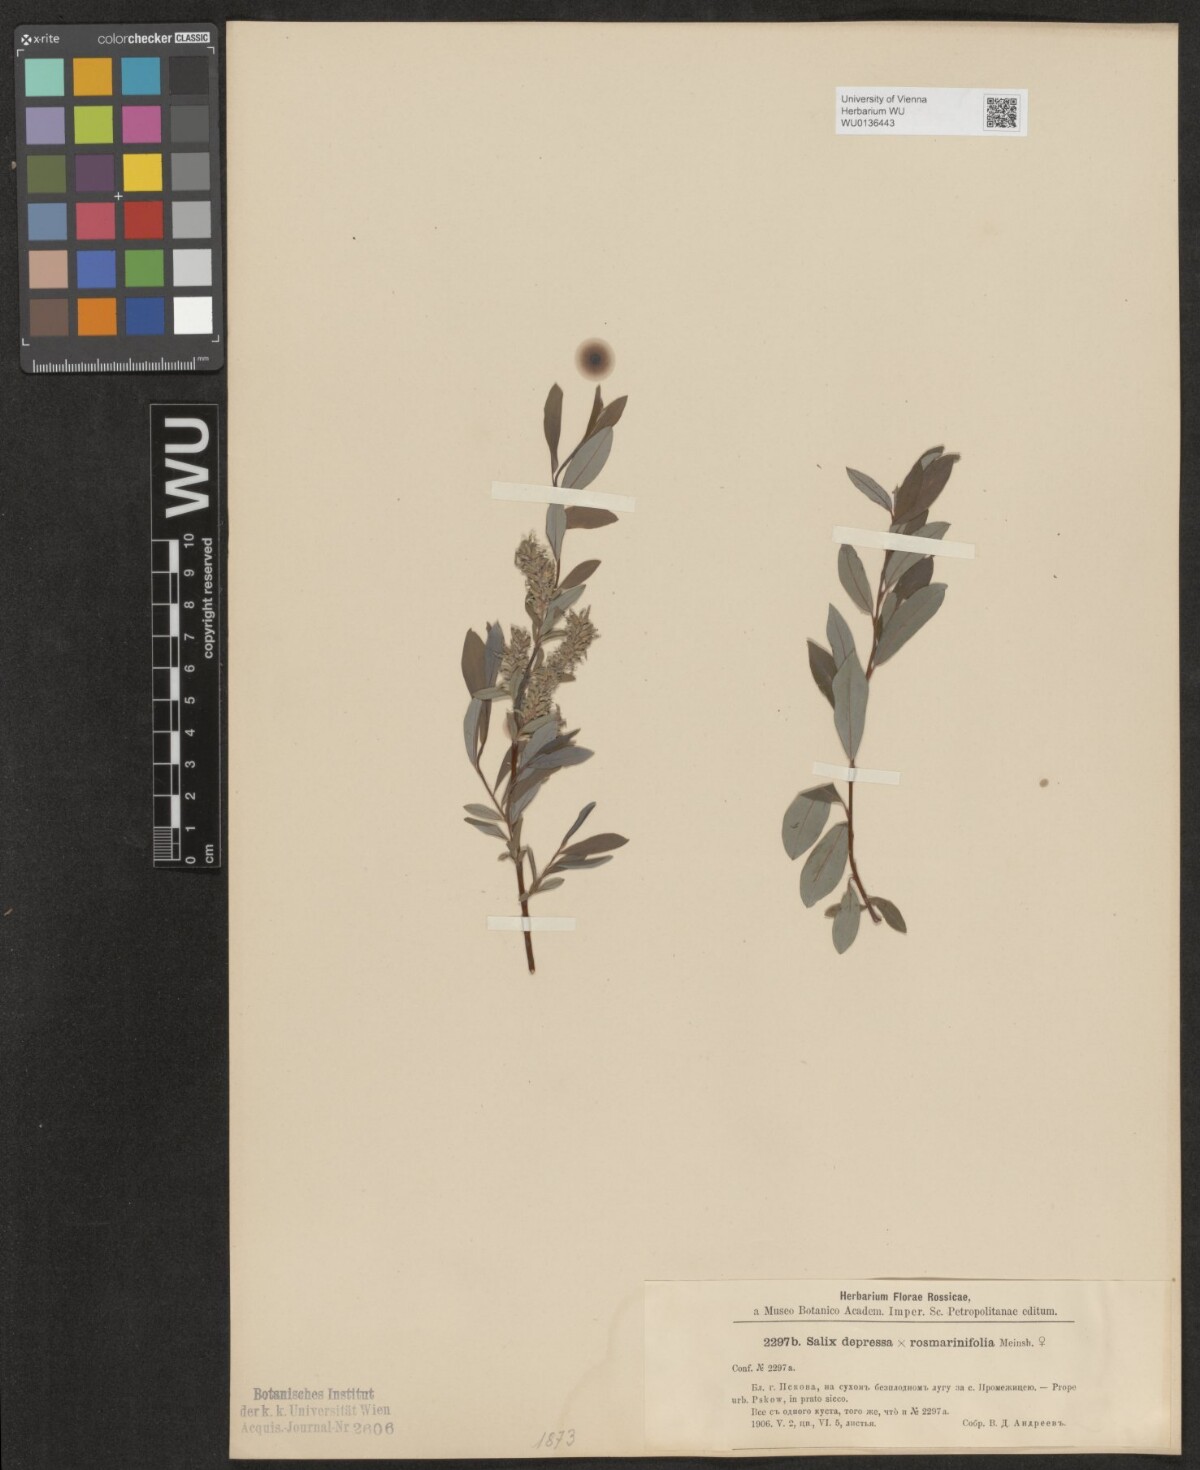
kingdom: Plantae
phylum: Tracheophyta
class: Magnoliopsida
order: Malpighiales
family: Salicaceae
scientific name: Salicaceae
